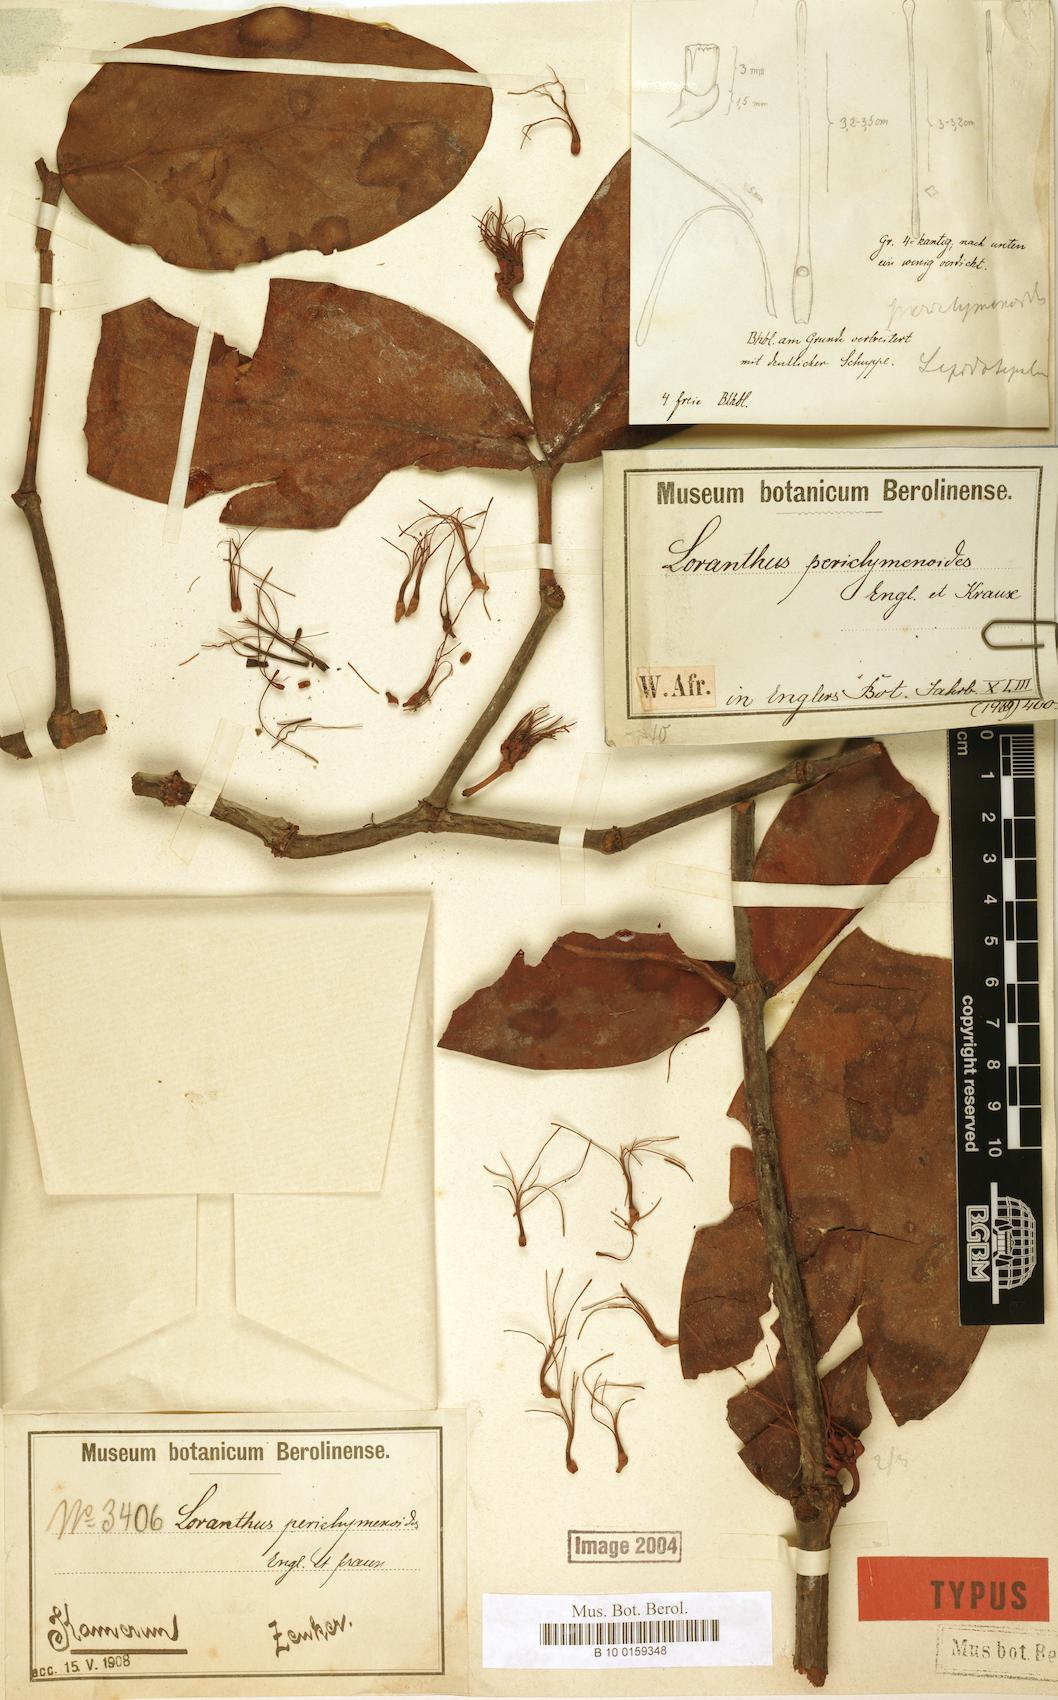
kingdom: Plantae
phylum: Tracheophyta
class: Magnoliopsida
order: Santalales
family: Loranthaceae
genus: Helixanthera
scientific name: Helixanthera periclymenoides
